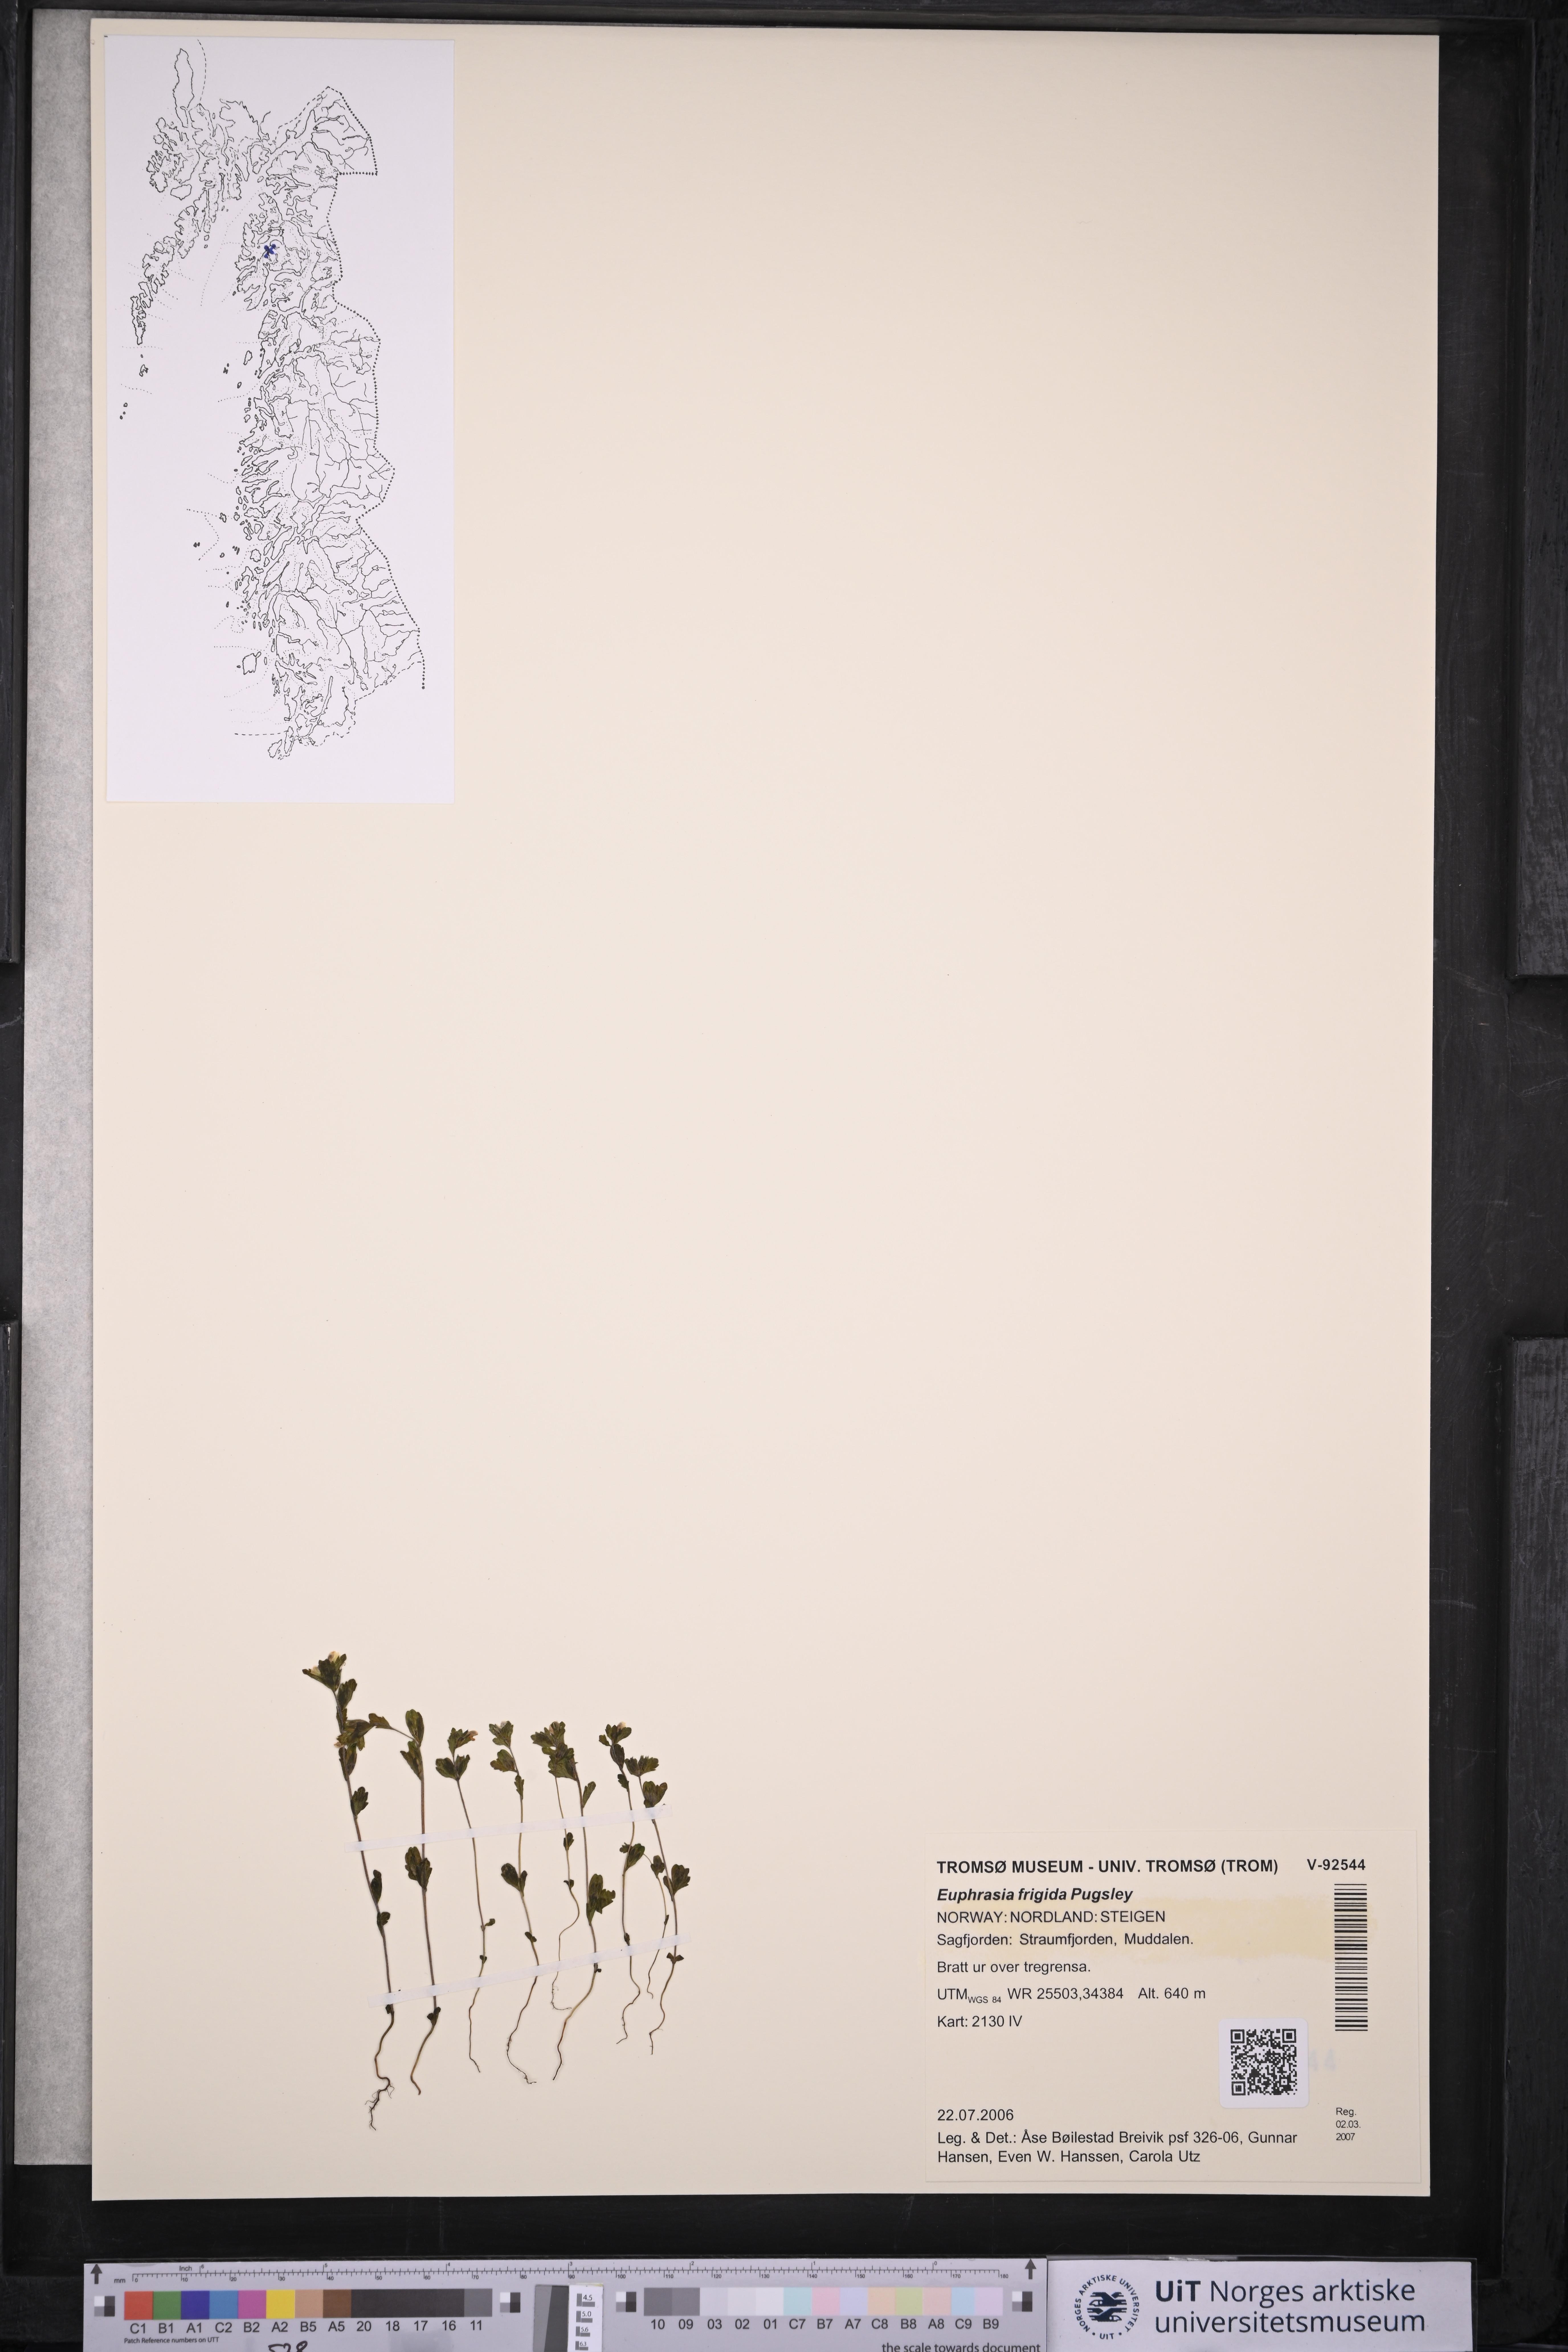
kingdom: Plantae
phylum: Tracheophyta
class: Magnoliopsida
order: Lamiales
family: Orobanchaceae
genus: Euphrasia
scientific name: Euphrasia frigida
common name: An eyebright
